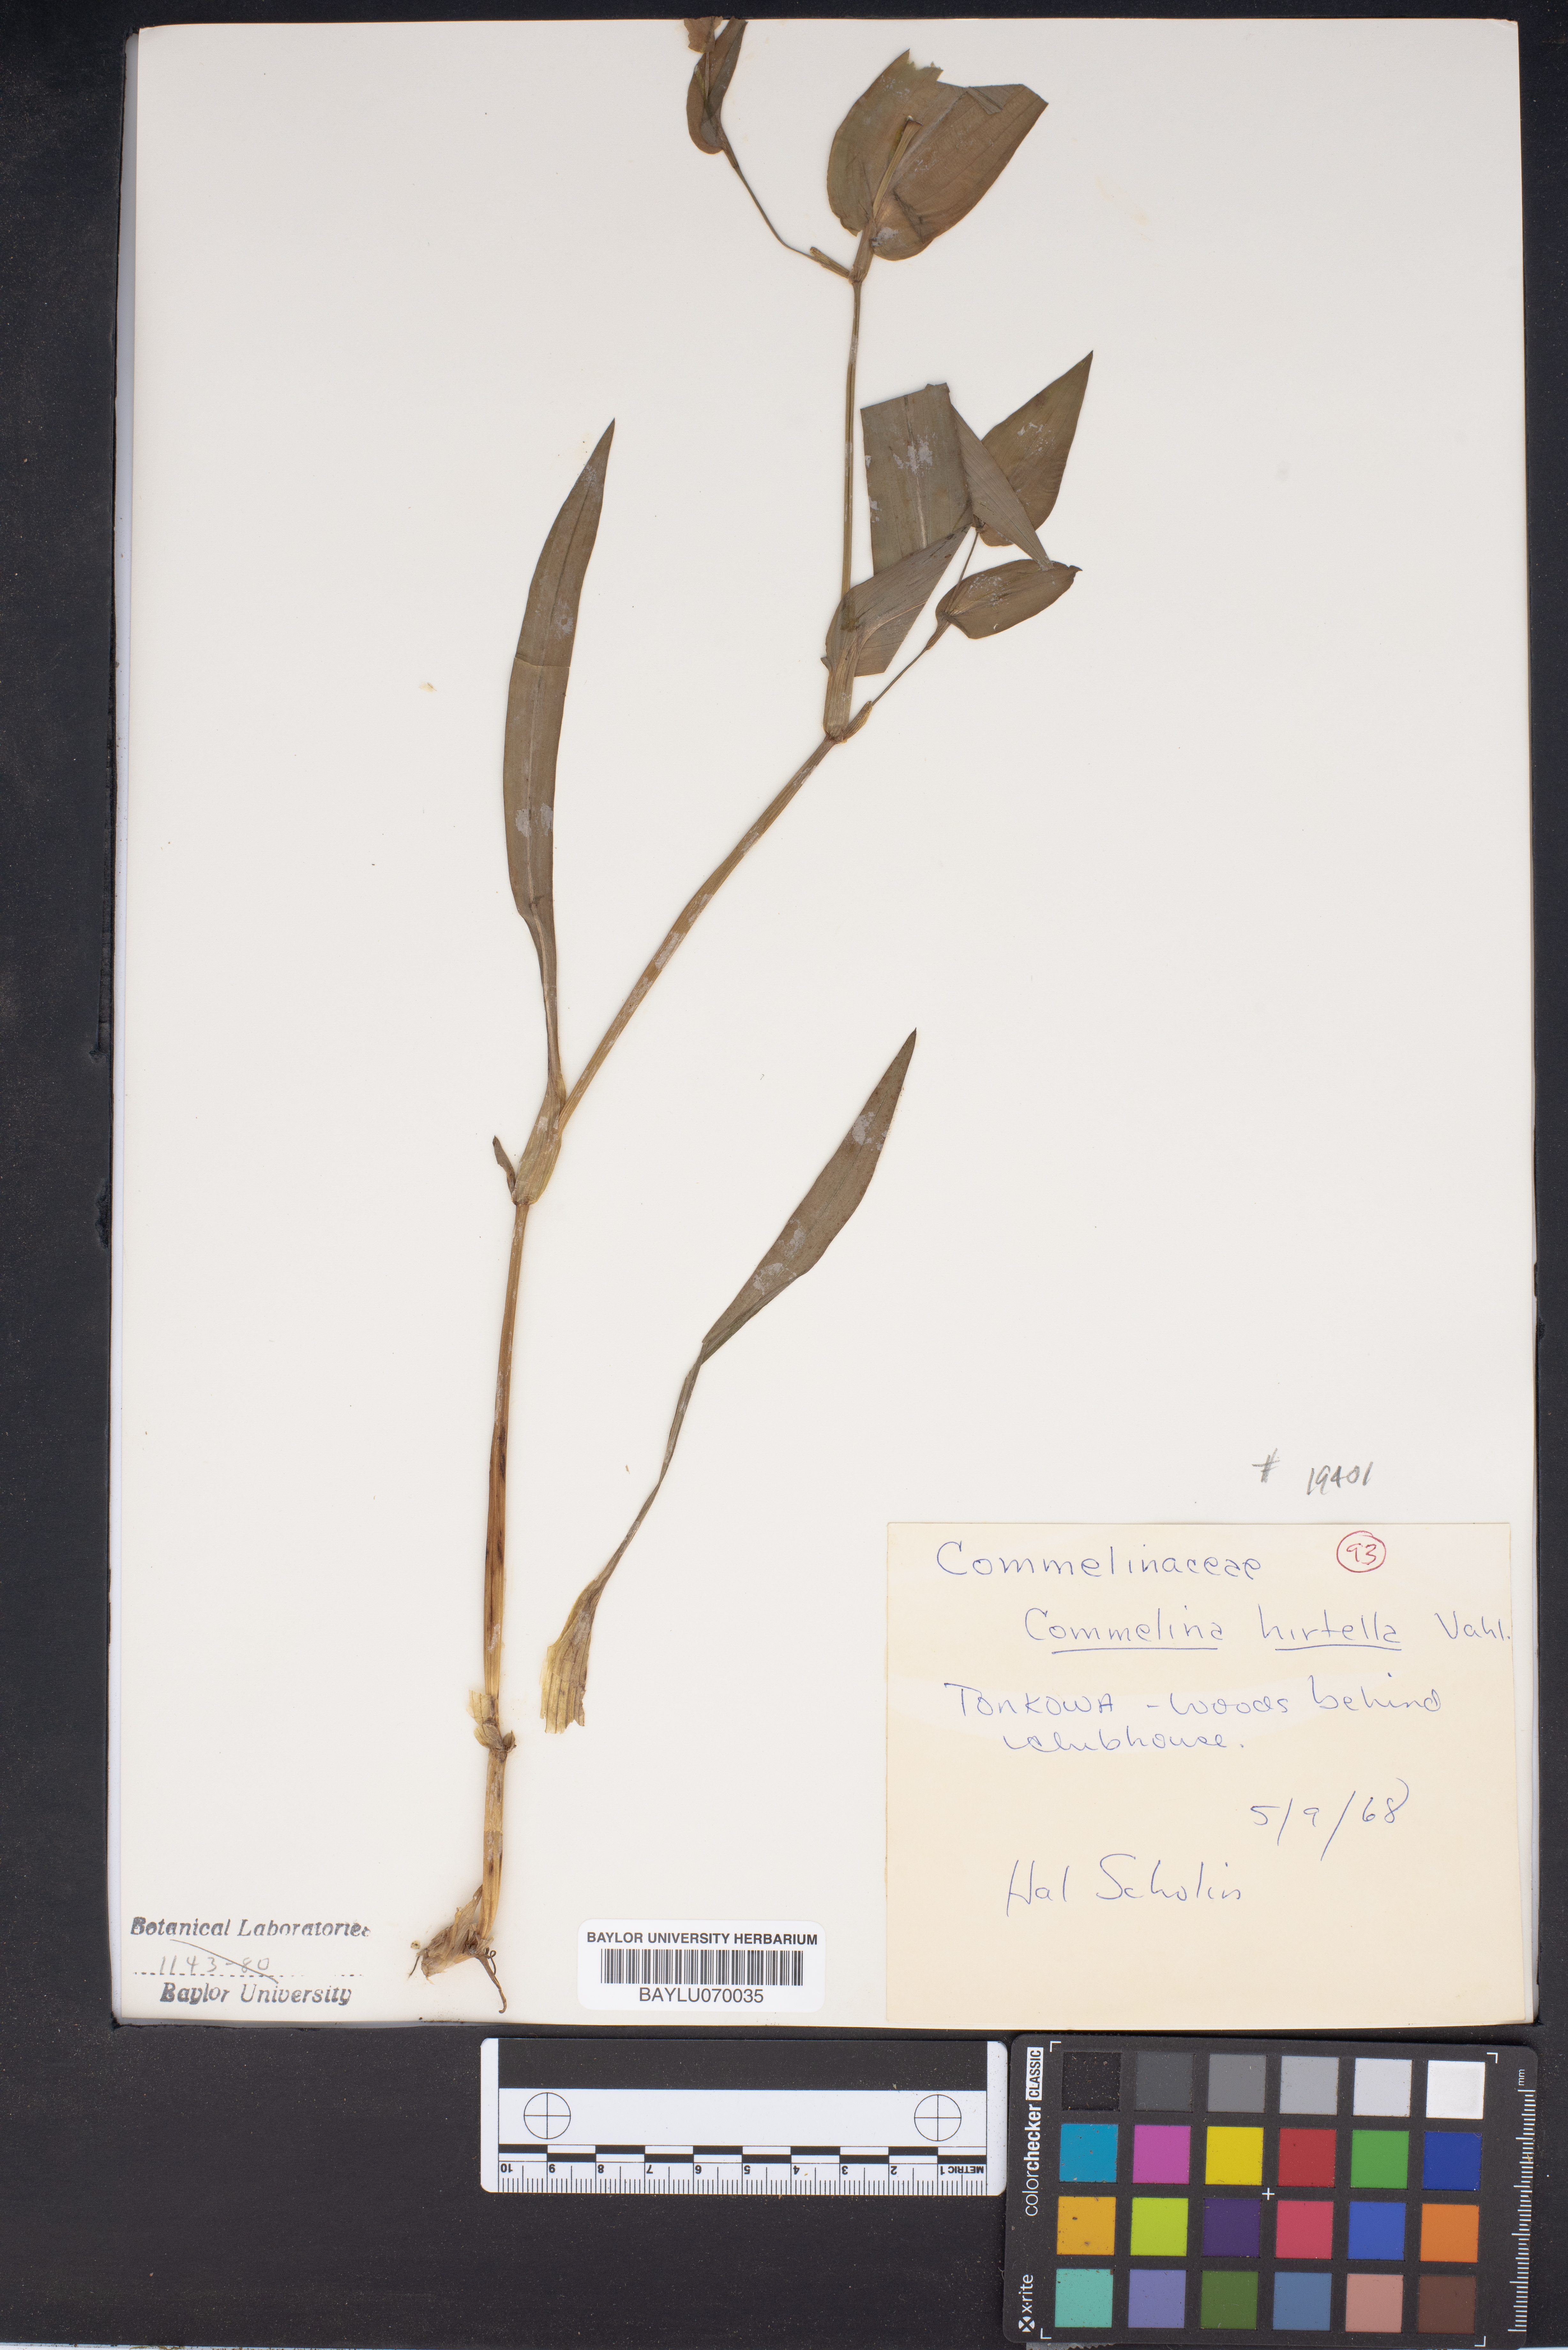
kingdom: Plantae
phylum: Tracheophyta
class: Liliopsida
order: Commelinales
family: Commelinaceae
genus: Commelina
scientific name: Commelina virginica
